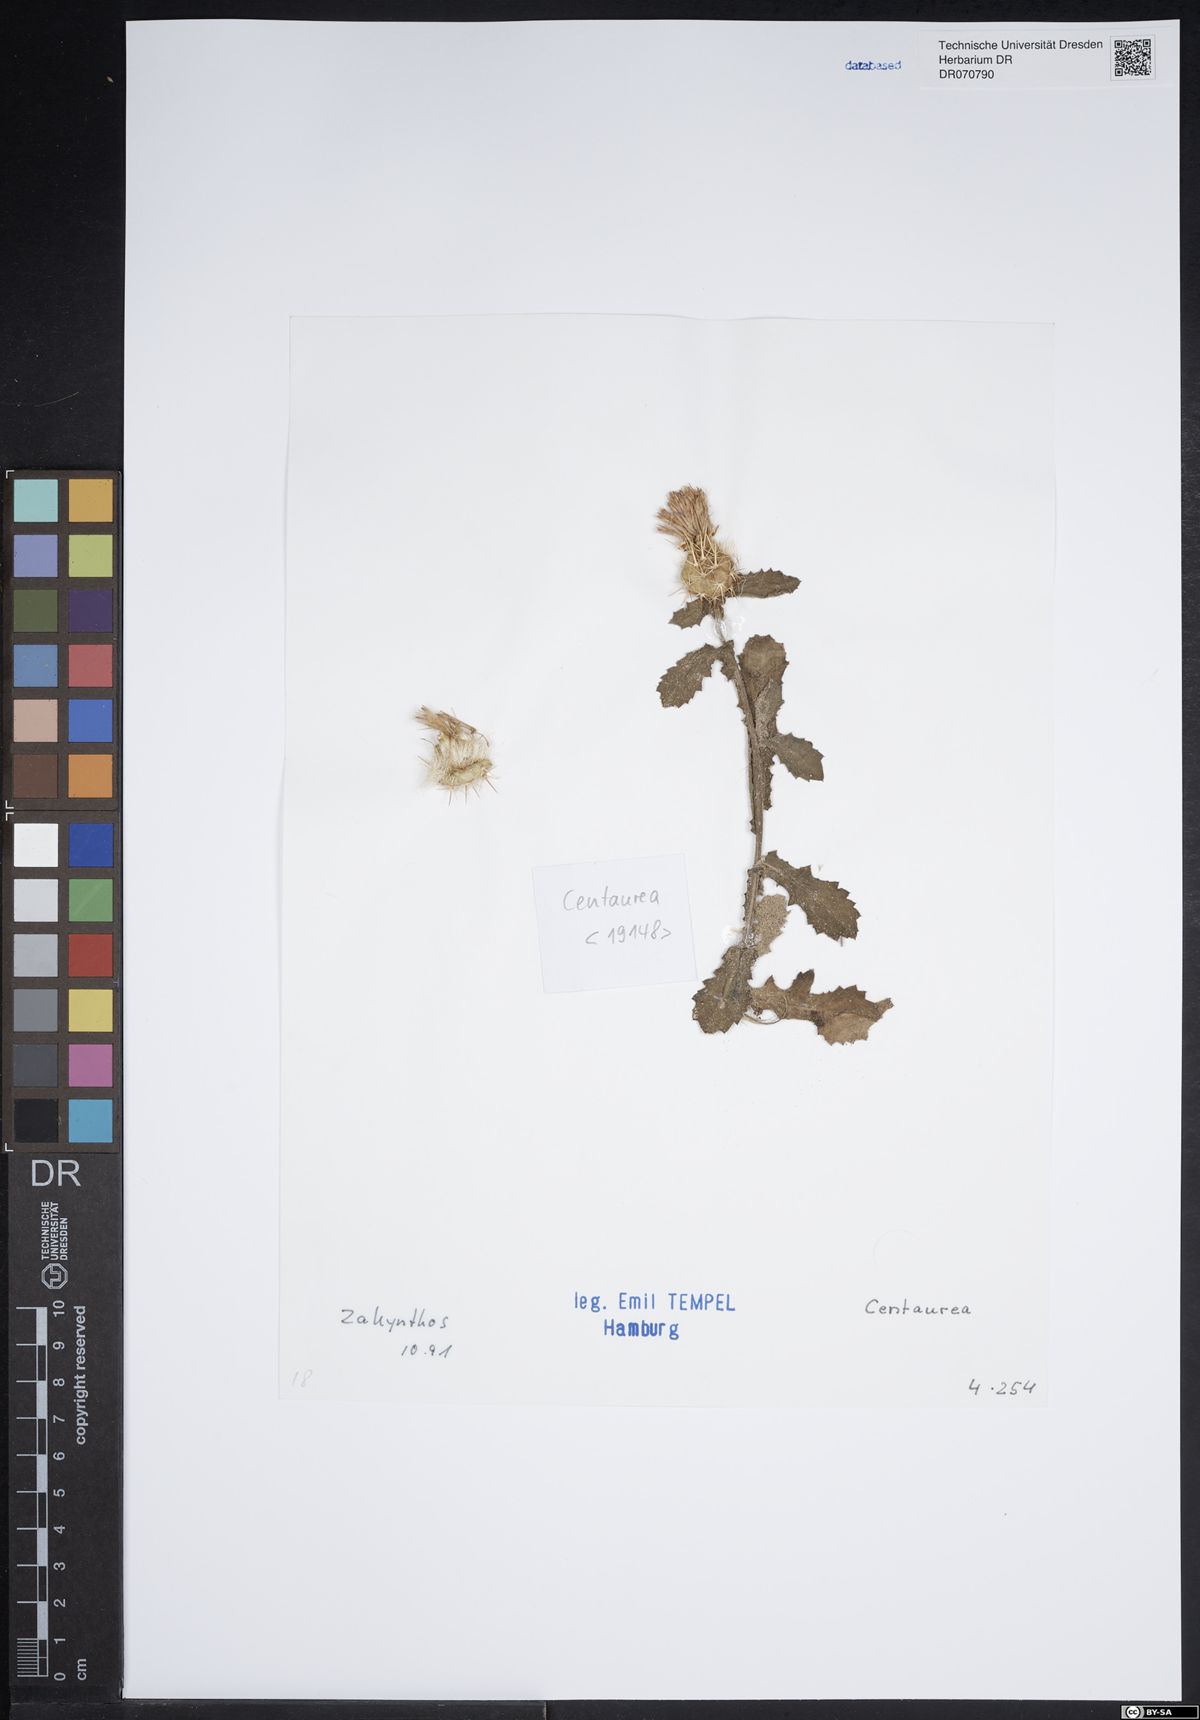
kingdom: Plantae
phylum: Tracheophyta
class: Magnoliopsida
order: Asterales
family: Asteraceae
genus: Centaurea
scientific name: Centaurea
